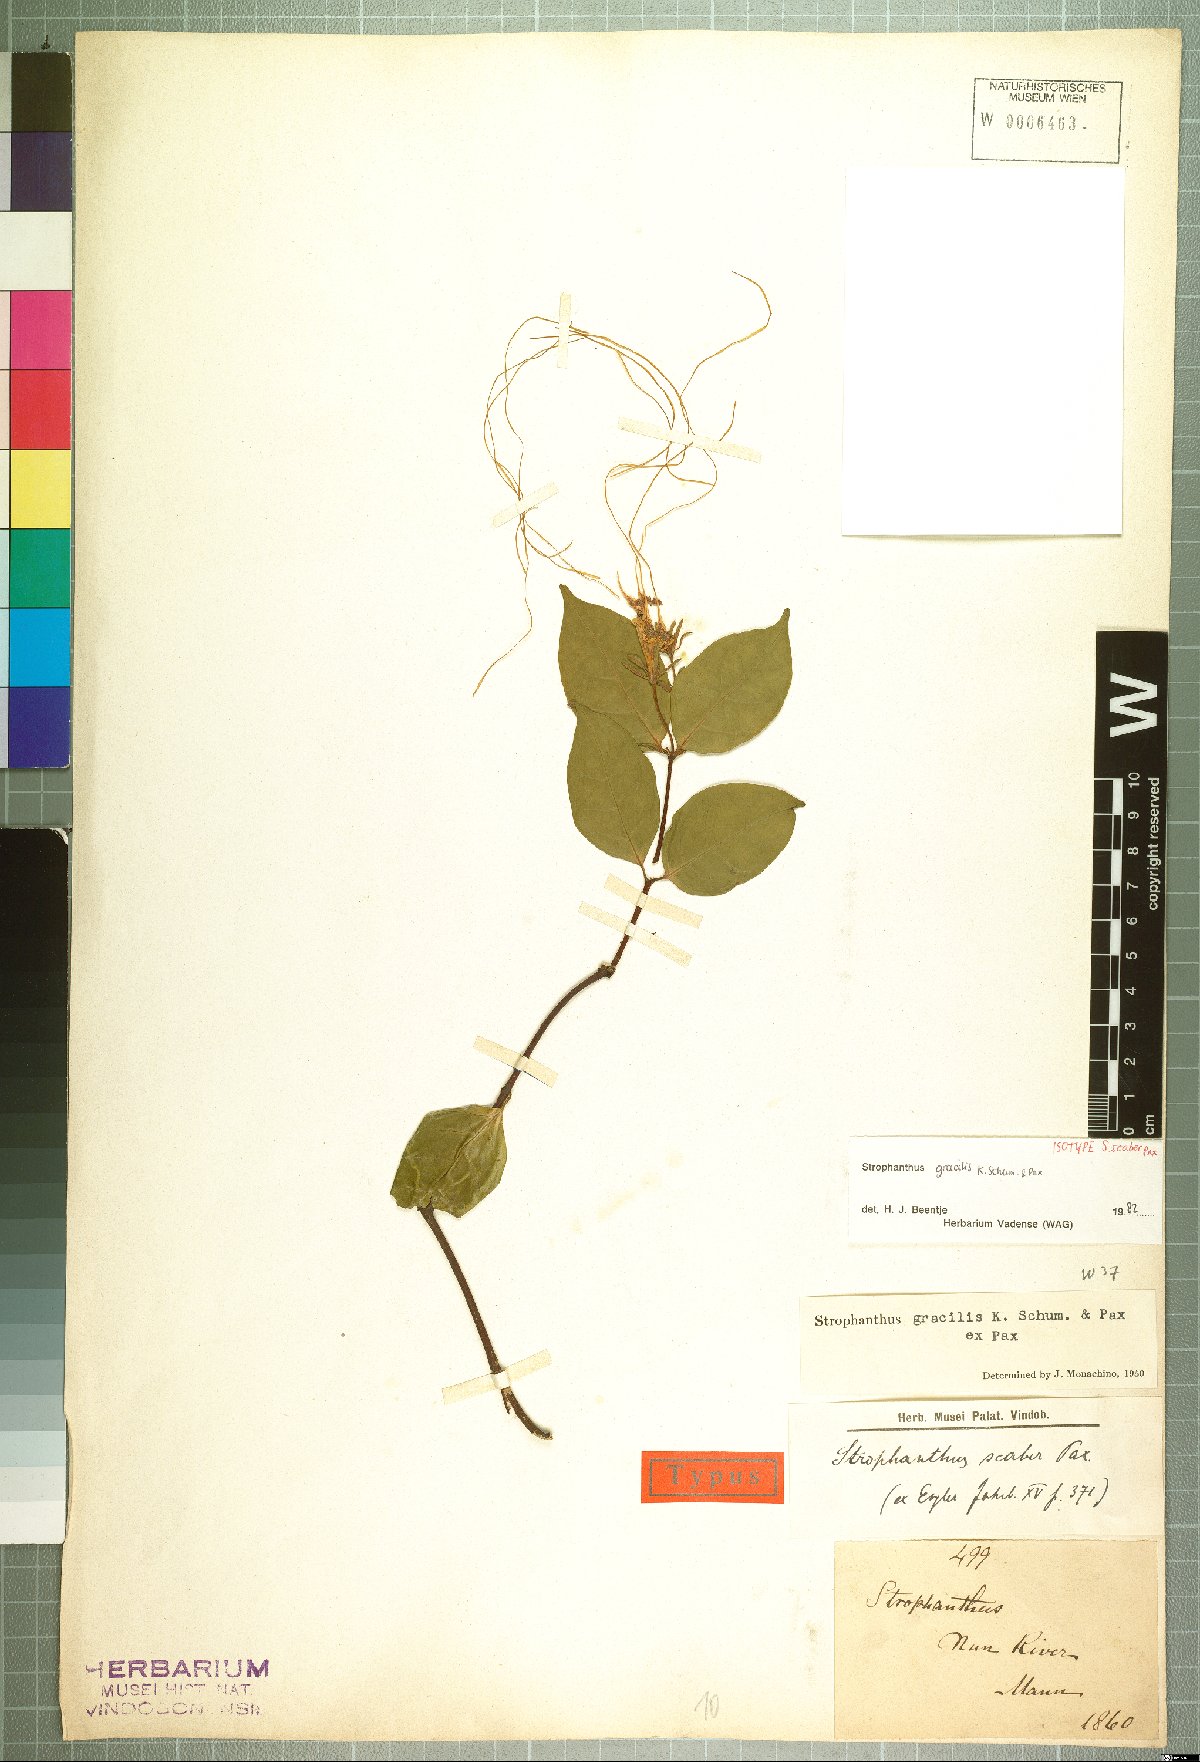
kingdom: Plantae
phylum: Tracheophyta
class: Magnoliopsida
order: Gentianales
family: Apocynaceae
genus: Strophanthus
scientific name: Strophanthus gracilis
